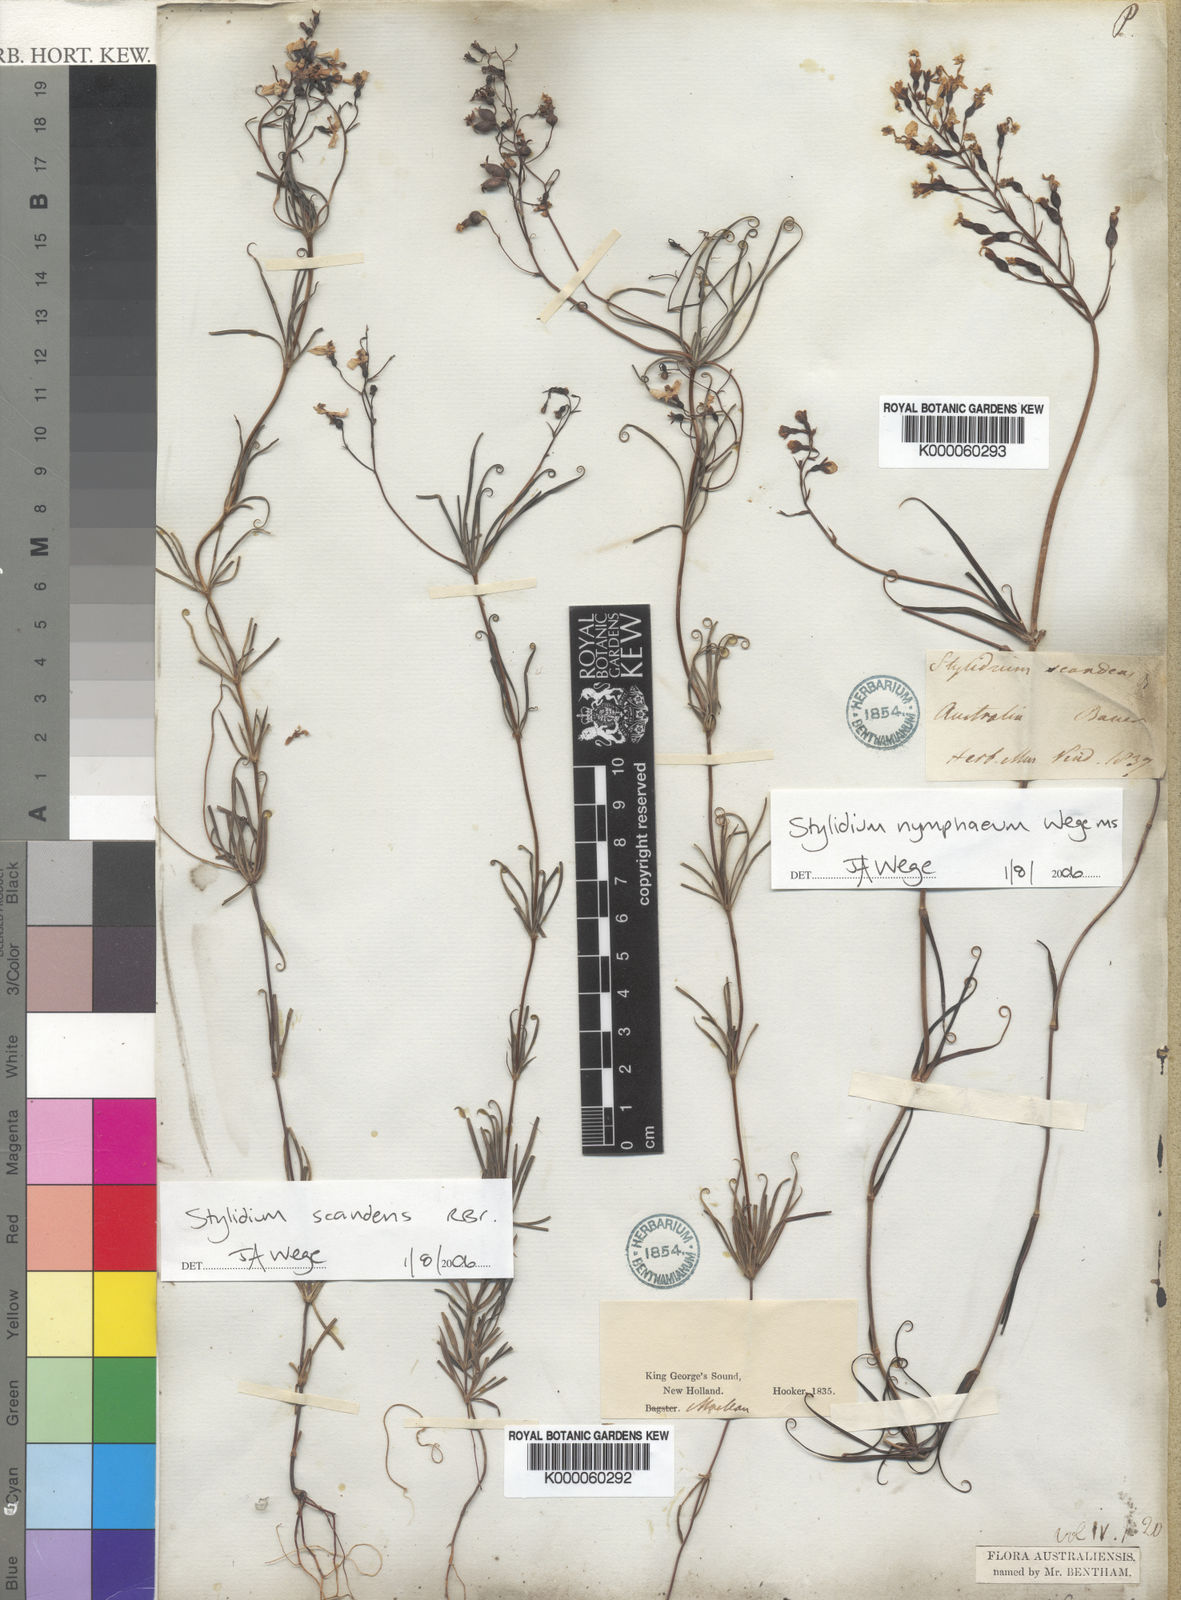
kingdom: Plantae
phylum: Tracheophyta
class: Magnoliopsida
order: Asterales
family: Stylidiaceae
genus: Stylidium
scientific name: Stylidium nymphaeum
